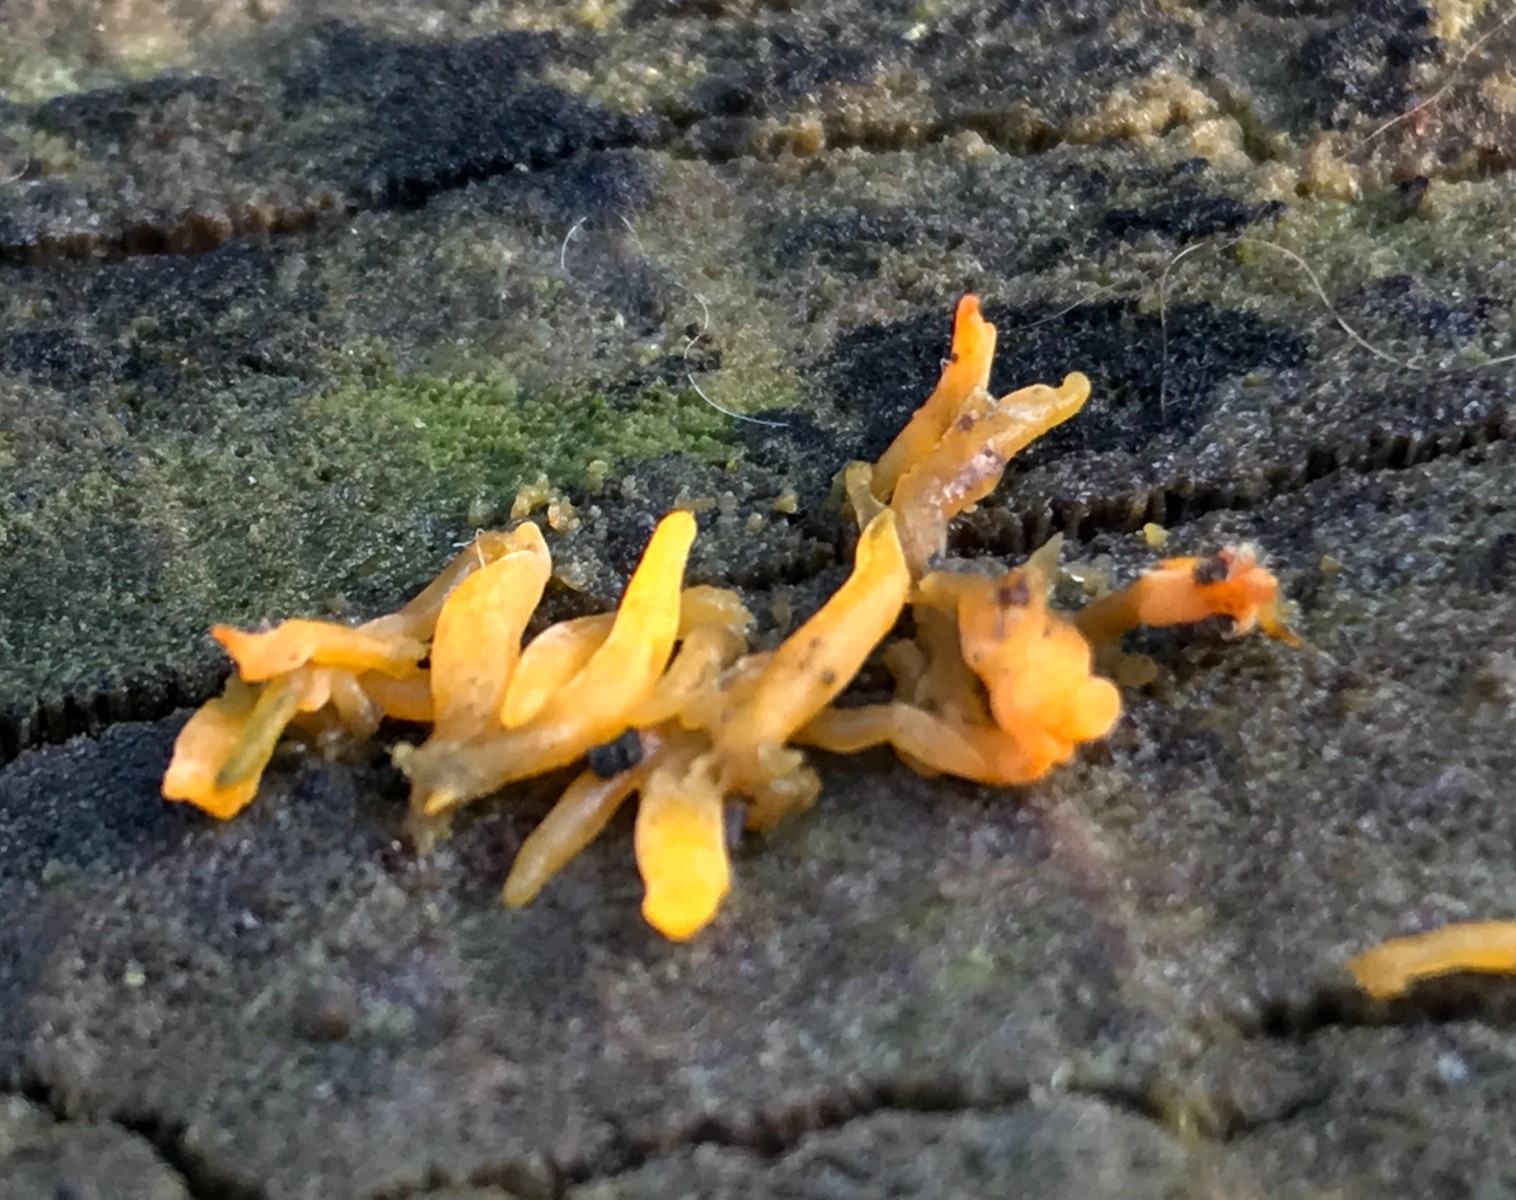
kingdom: Fungi
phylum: Basidiomycota
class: Dacrymycetes
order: Dacrymycetales
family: Dacrymycetaceae
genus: Calocera
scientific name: Calocera cornea
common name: liden guldgaffel
